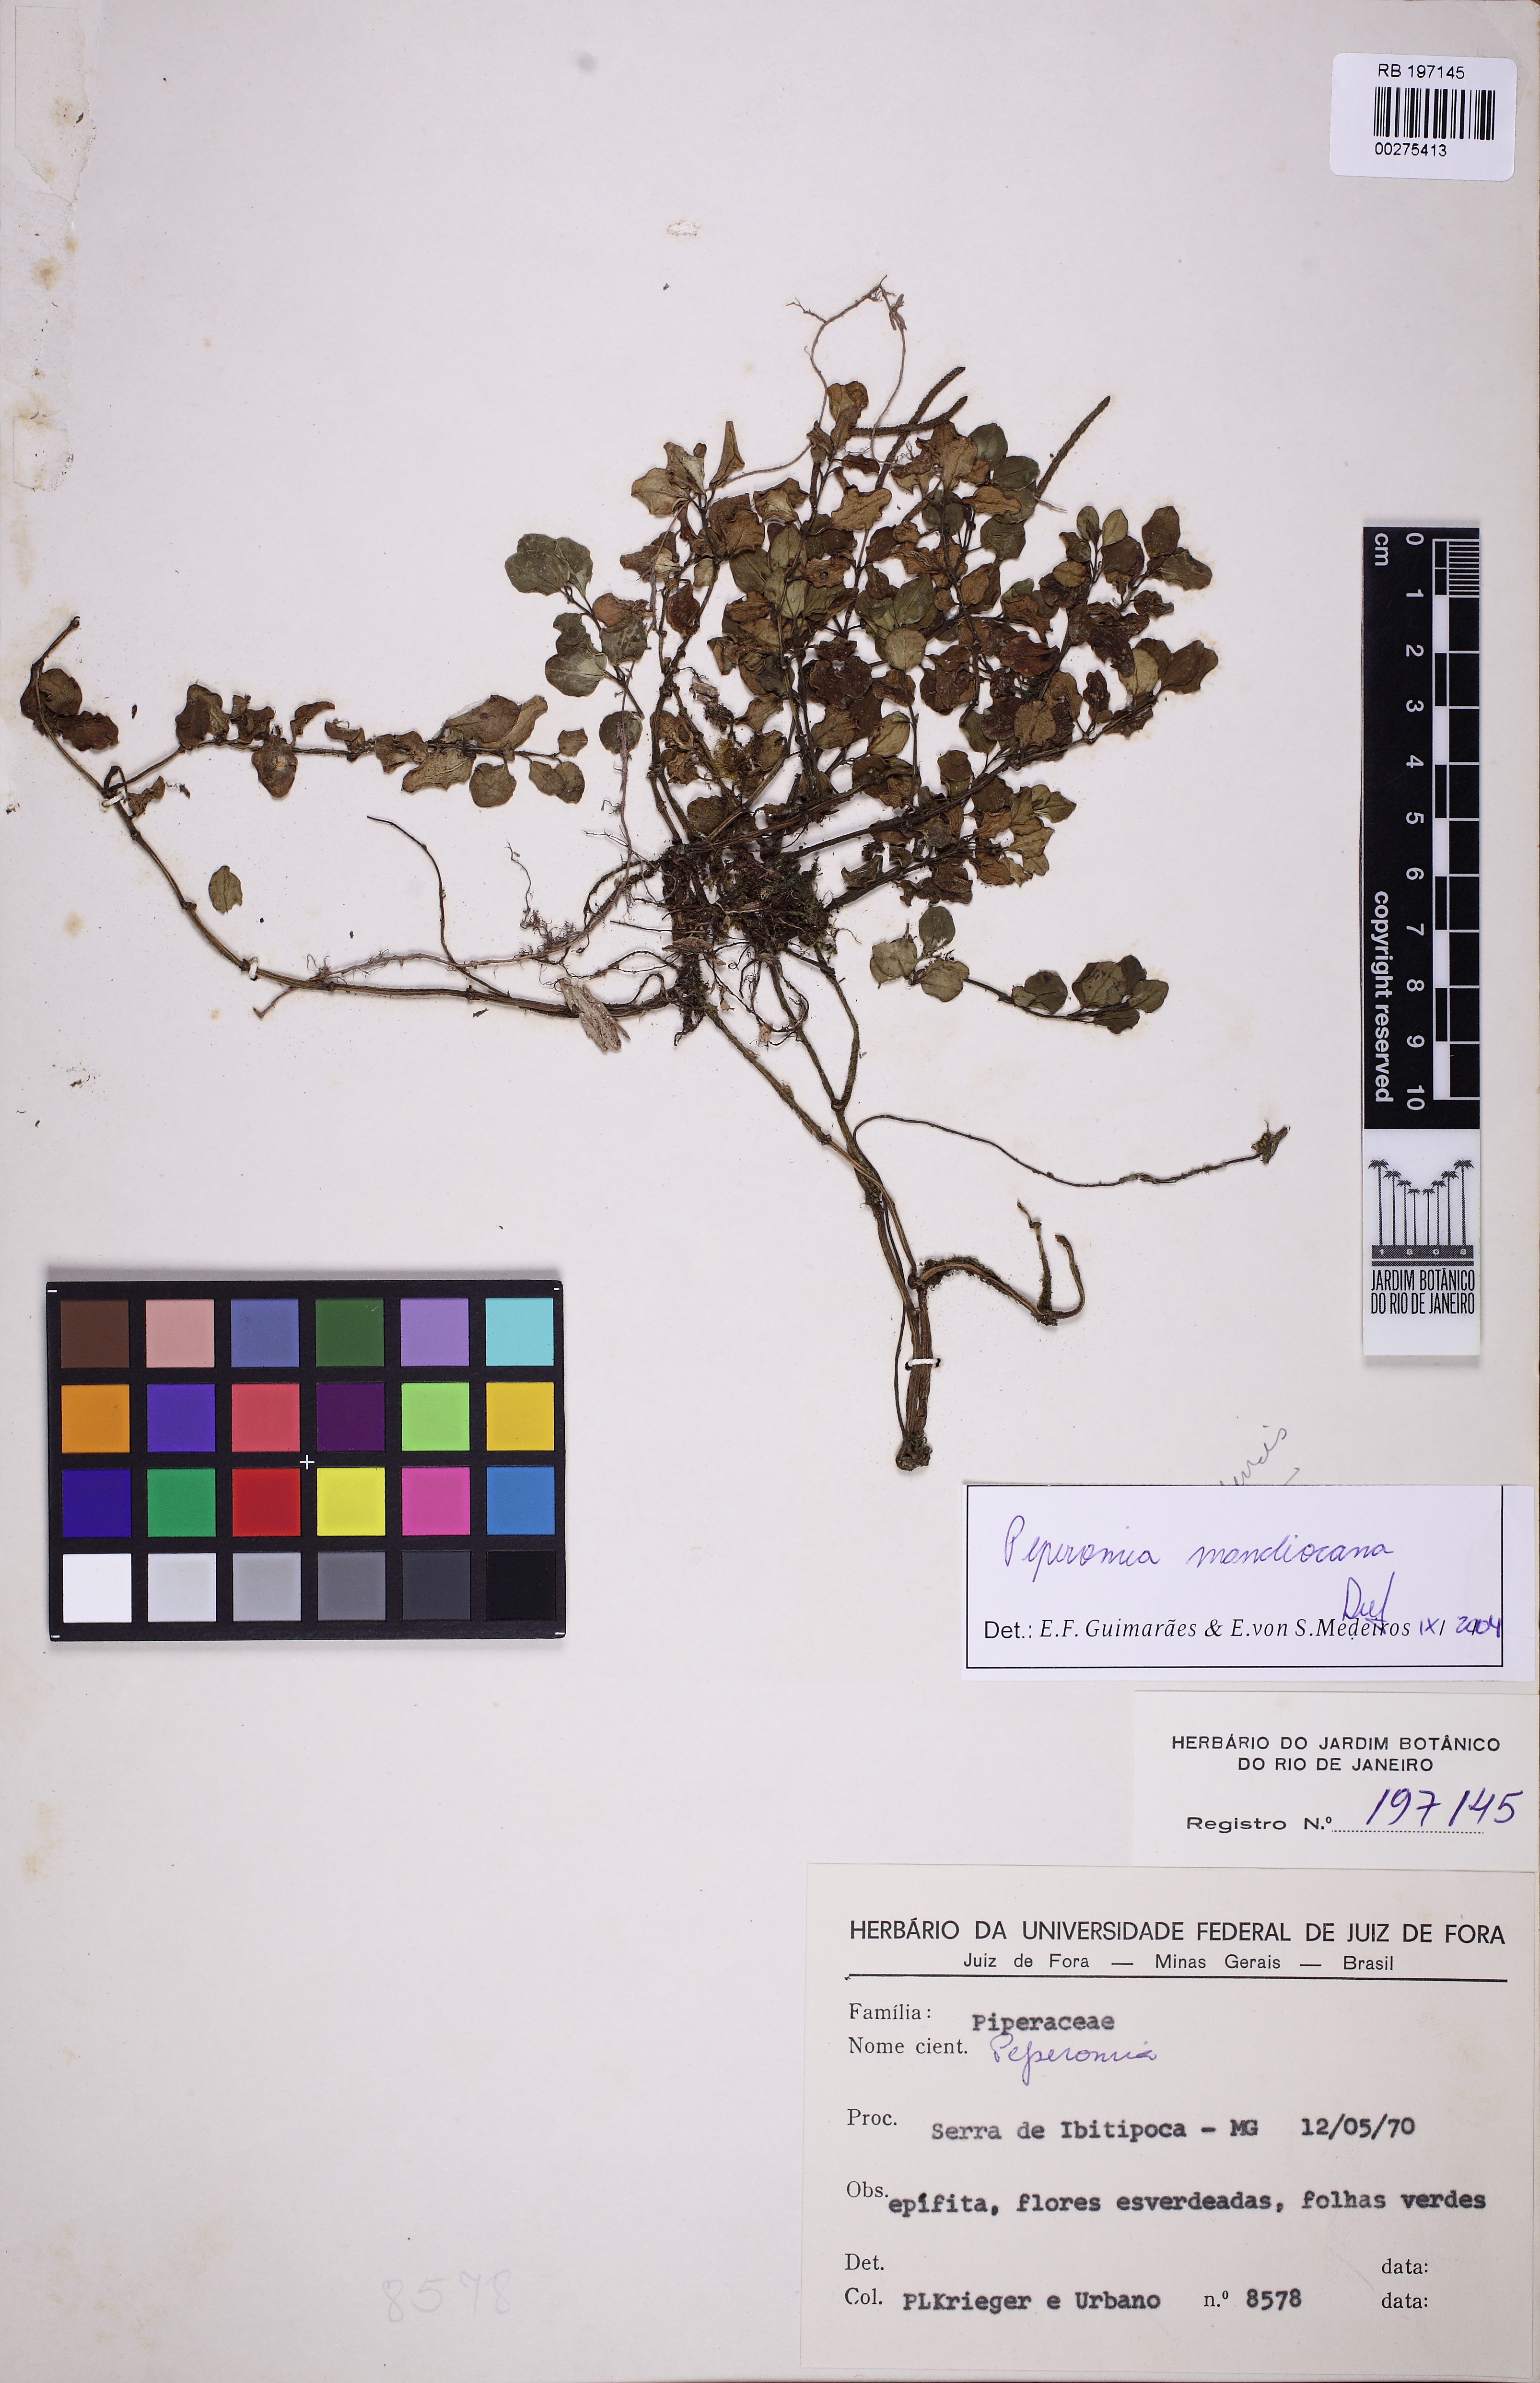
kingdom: Plantae
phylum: Tracheophyta
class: Magnoliopsida
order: Piperales
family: Piperaceae
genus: Peperomia
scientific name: Peperomia mandioccana
